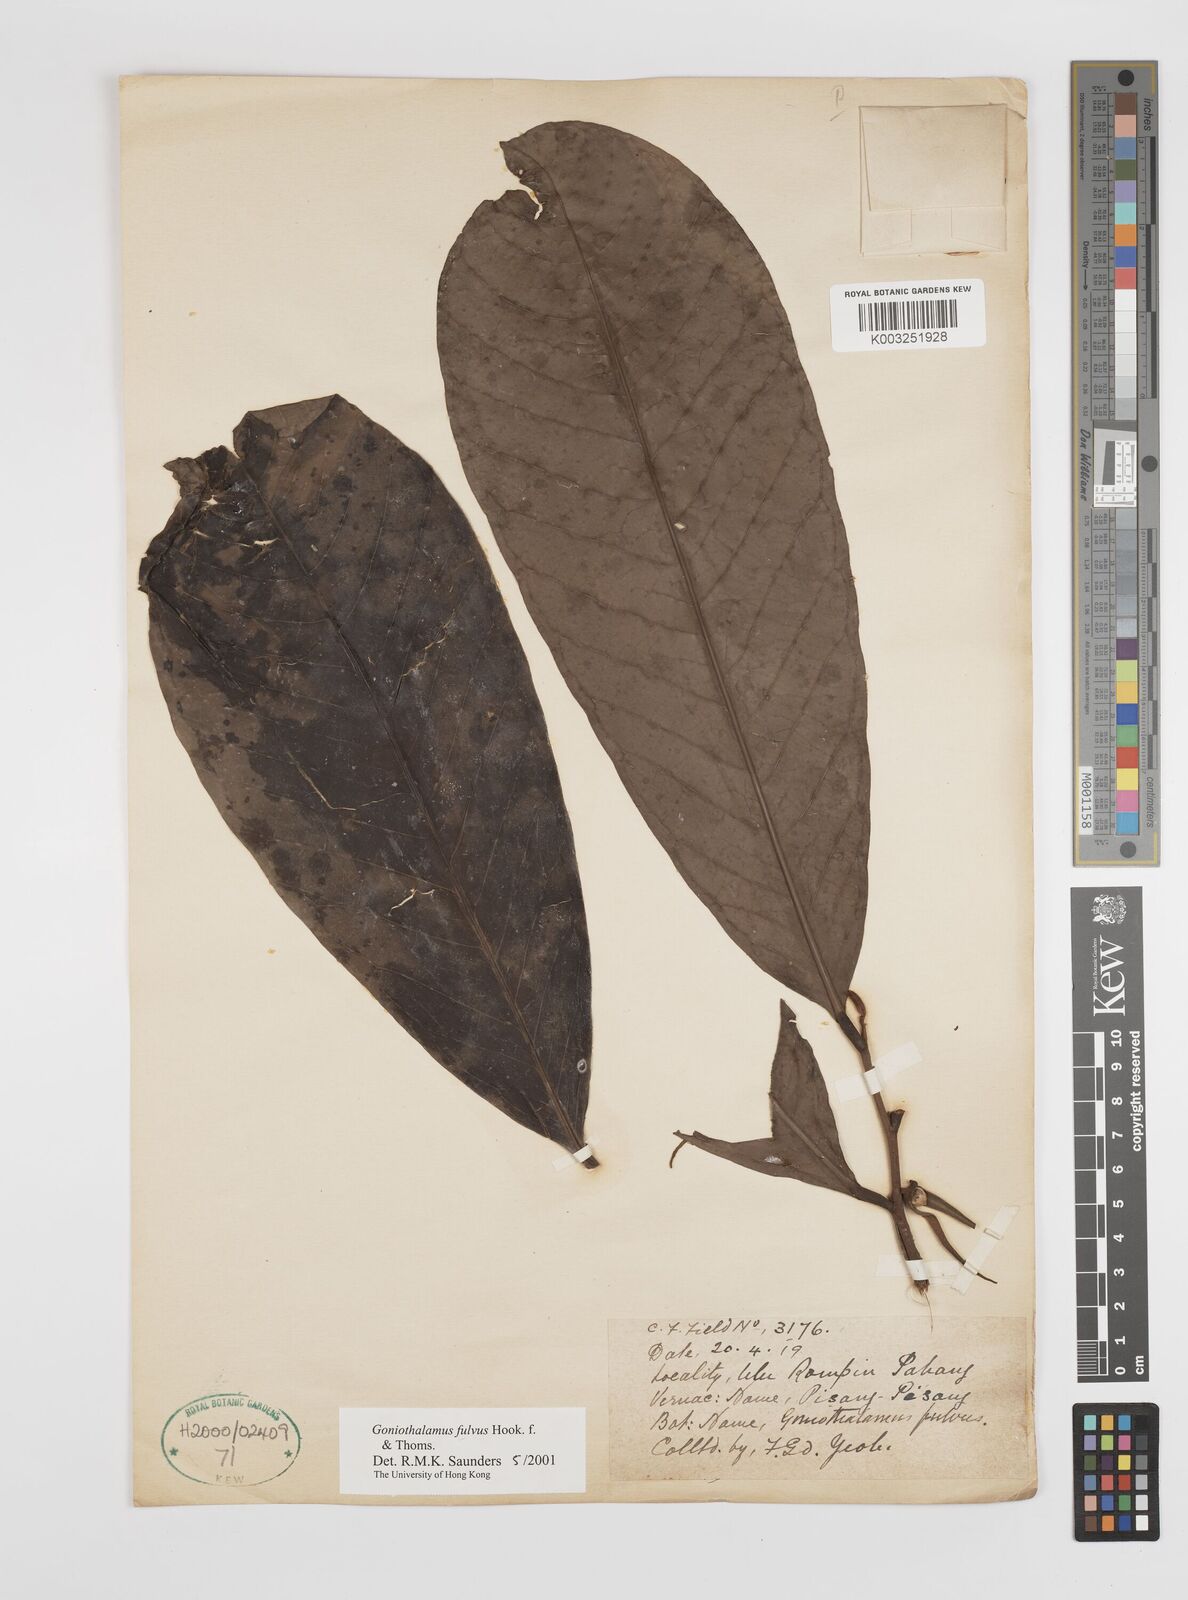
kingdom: Plantae
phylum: Tracheophyta
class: Magnoliopsida
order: Magnoliales
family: Annonaceae
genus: Goniothalamus
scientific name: Goniothalamus fulvus
